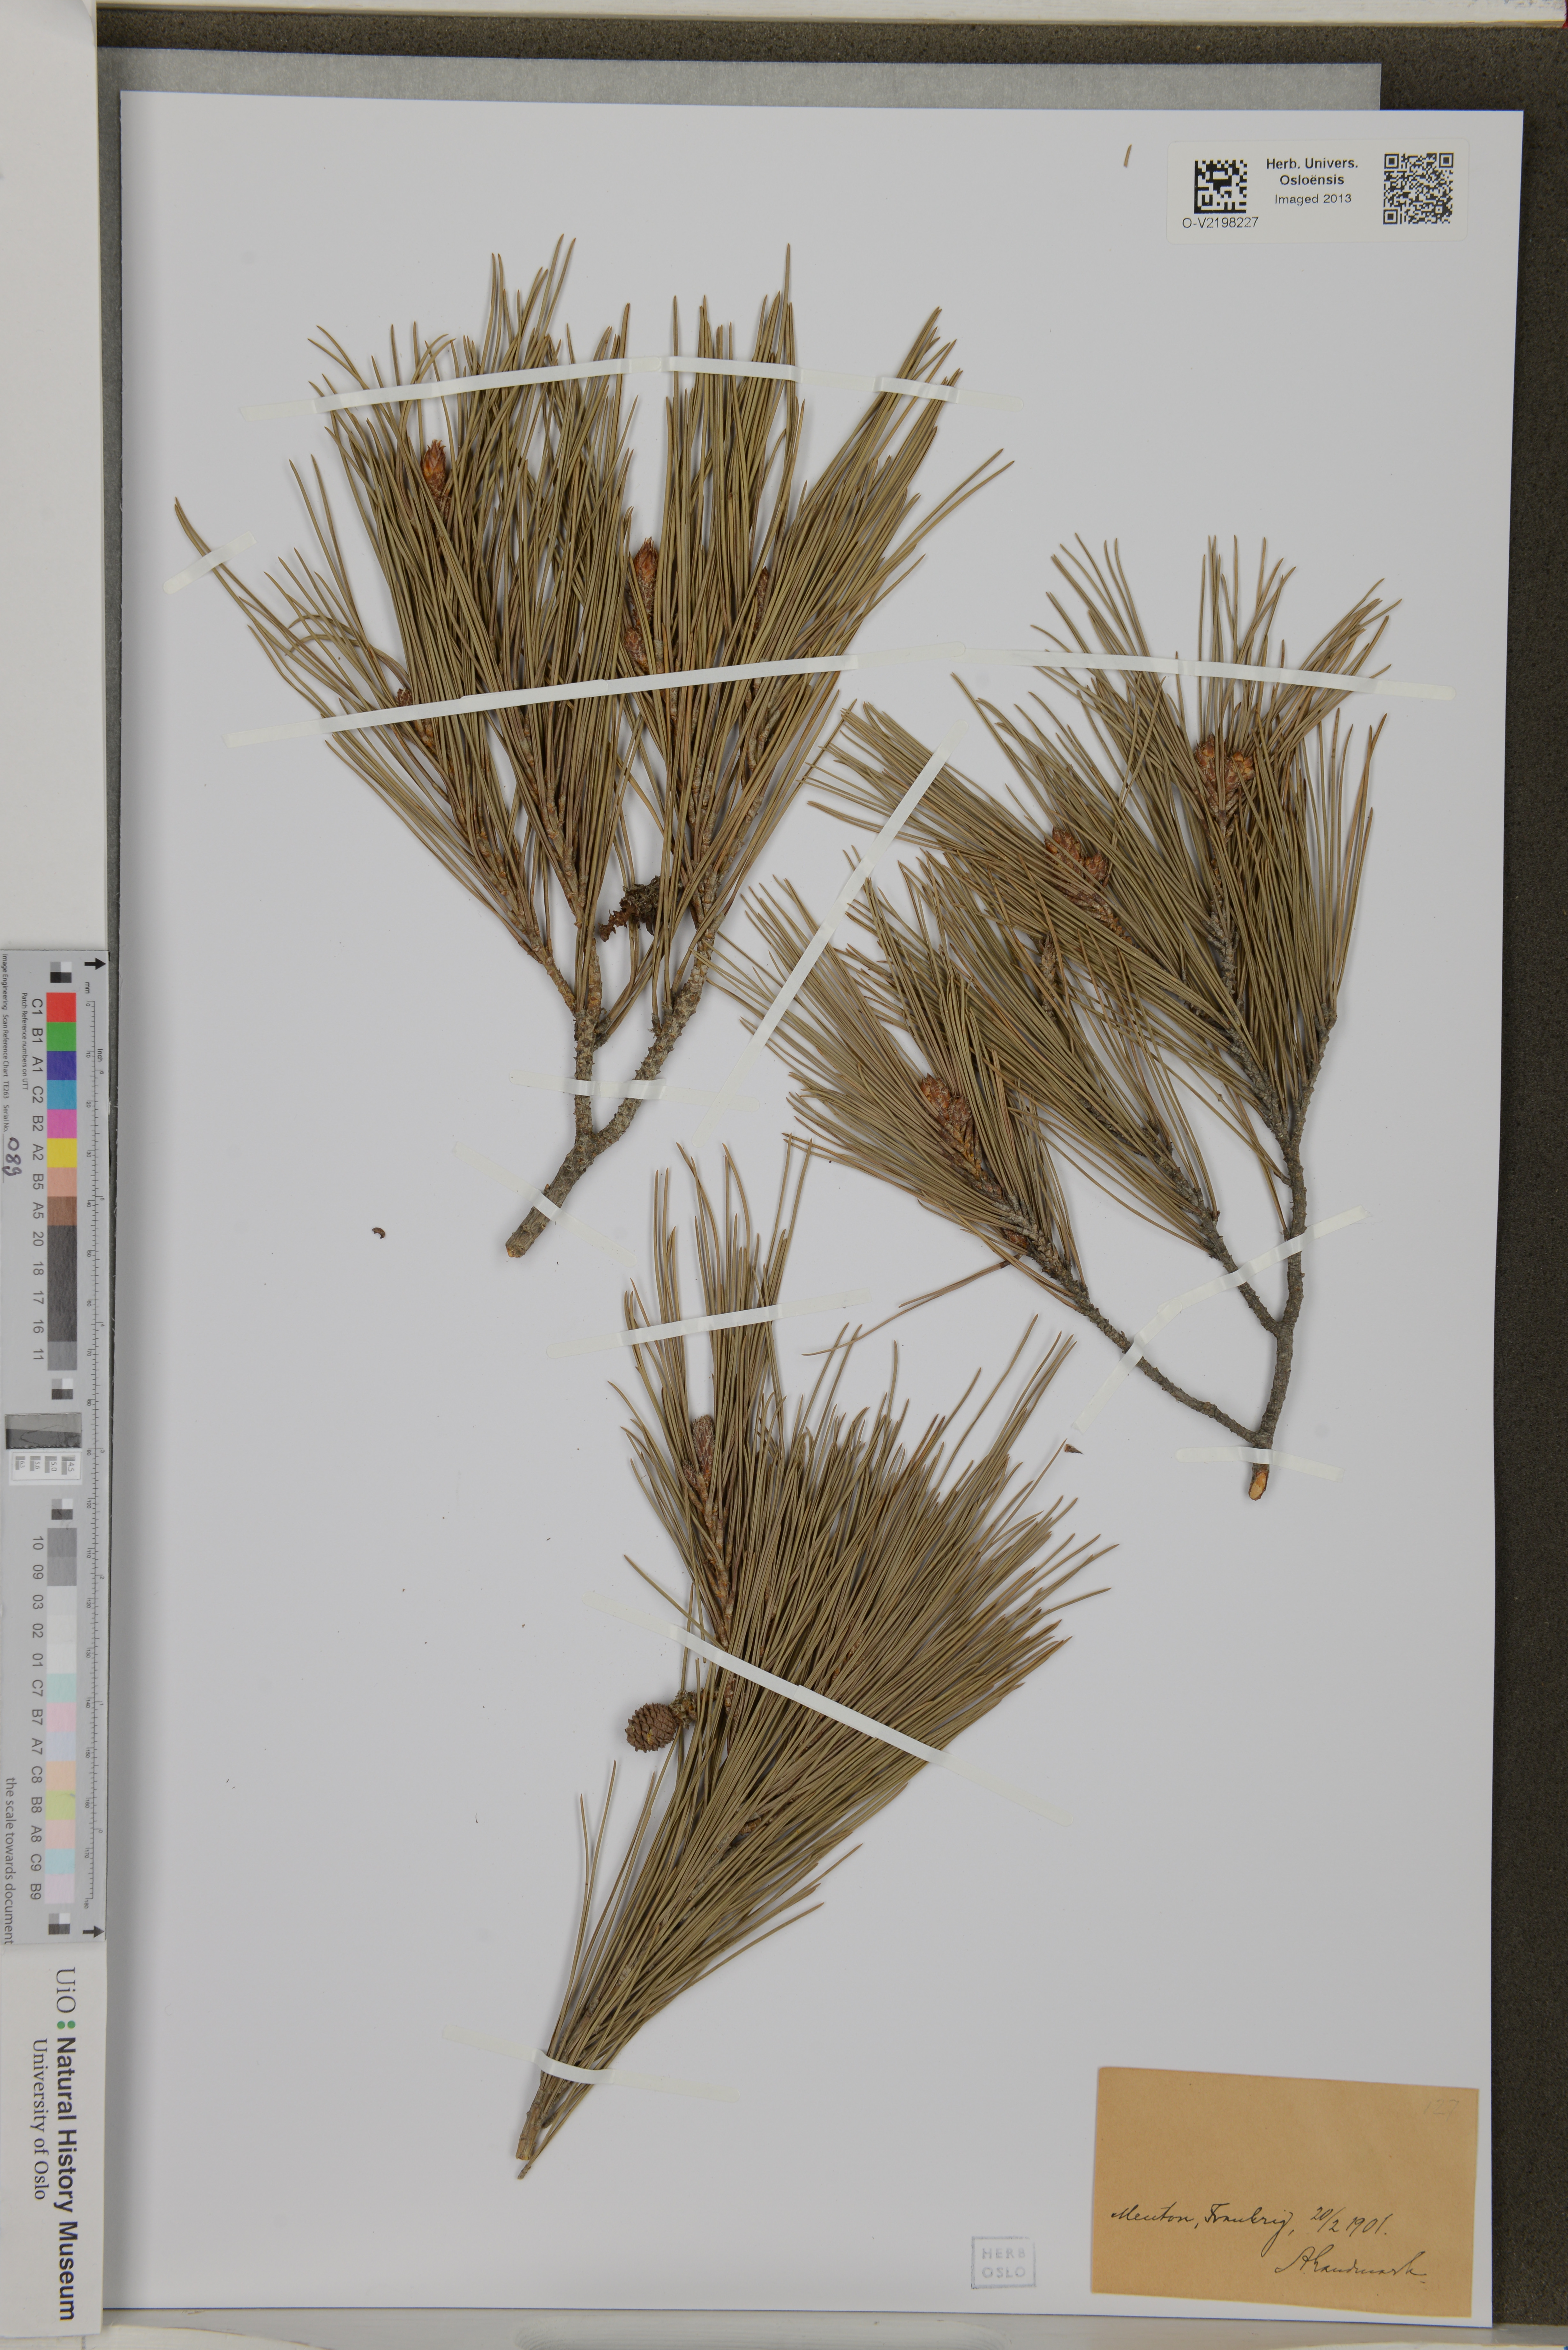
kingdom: Plantae
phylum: Tracheophyta
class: Pinopsida
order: Pinales
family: Pinaceae
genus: Pinus
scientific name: Pinus
